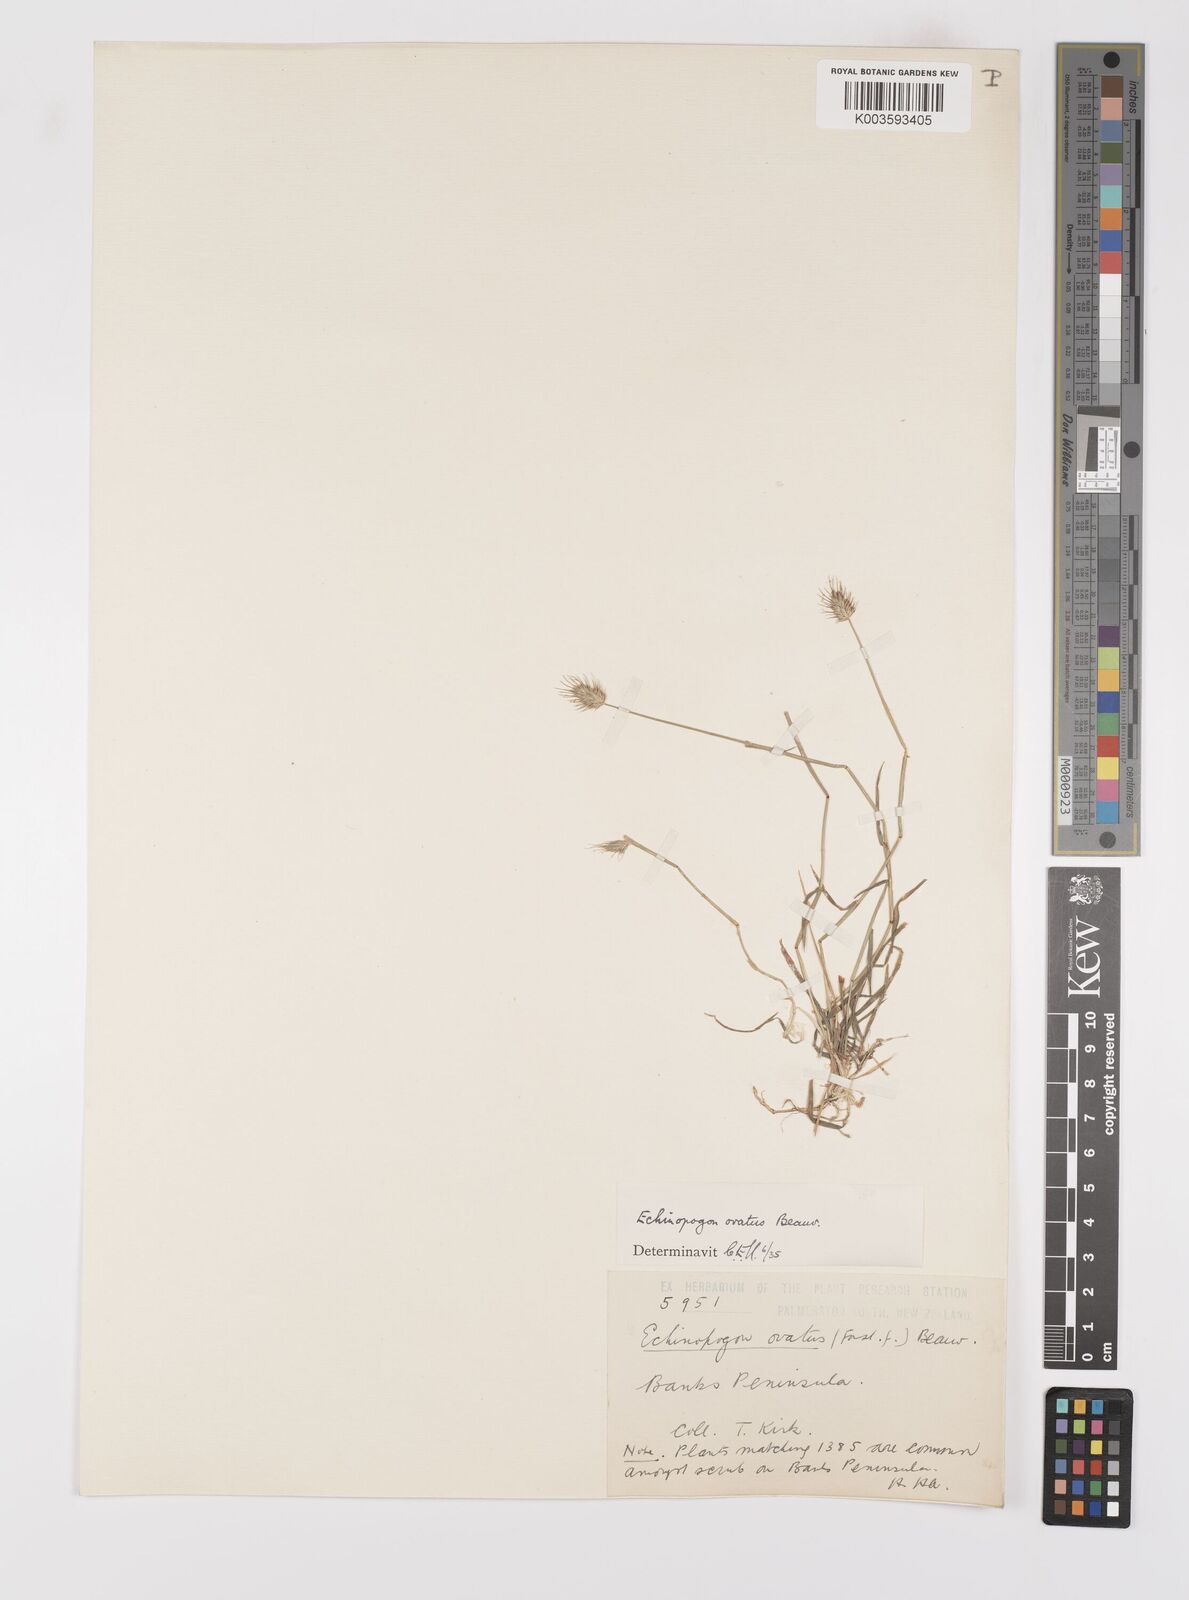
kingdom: Plantae
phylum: Tracheophyta
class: Liliopsida
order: Poales
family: Poaceae
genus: Echinopogon
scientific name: Echinopogon ovatus
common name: Hedgehog-grass
